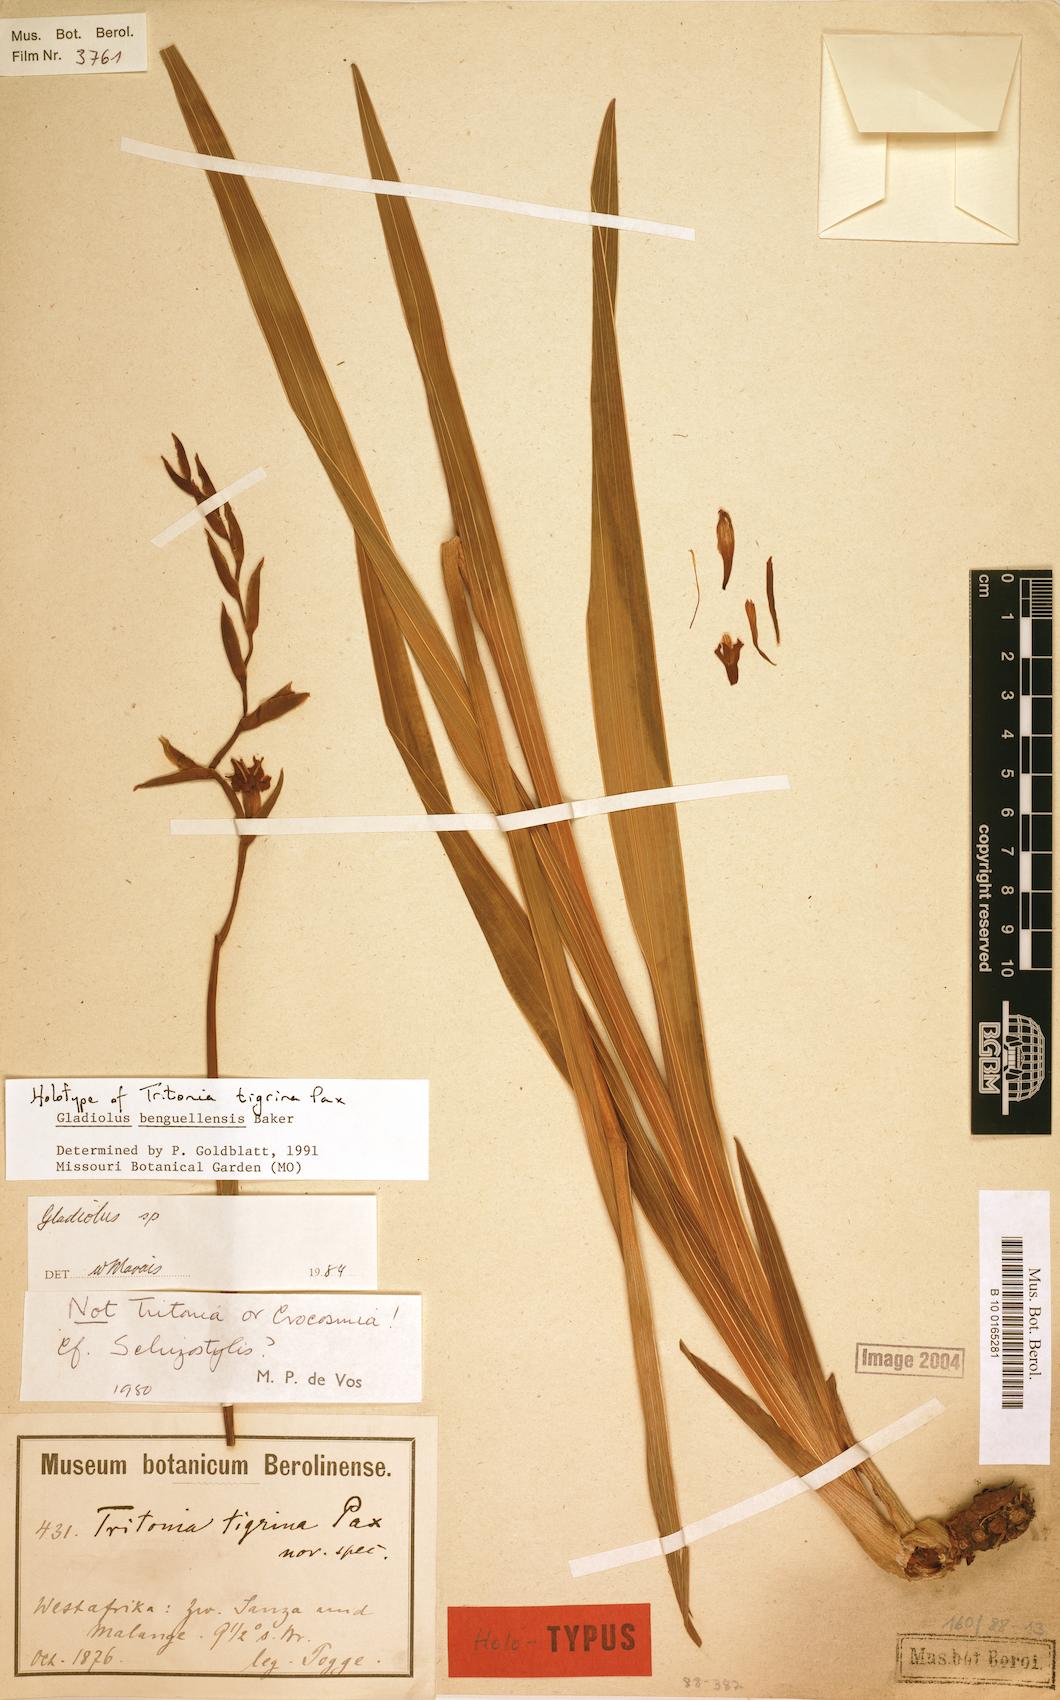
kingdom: Plantae
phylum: Tracheophyta
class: Liliopsida
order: Asparagales
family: Iridaceae
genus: Gladiolus
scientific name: Gladiolus benguellensis
